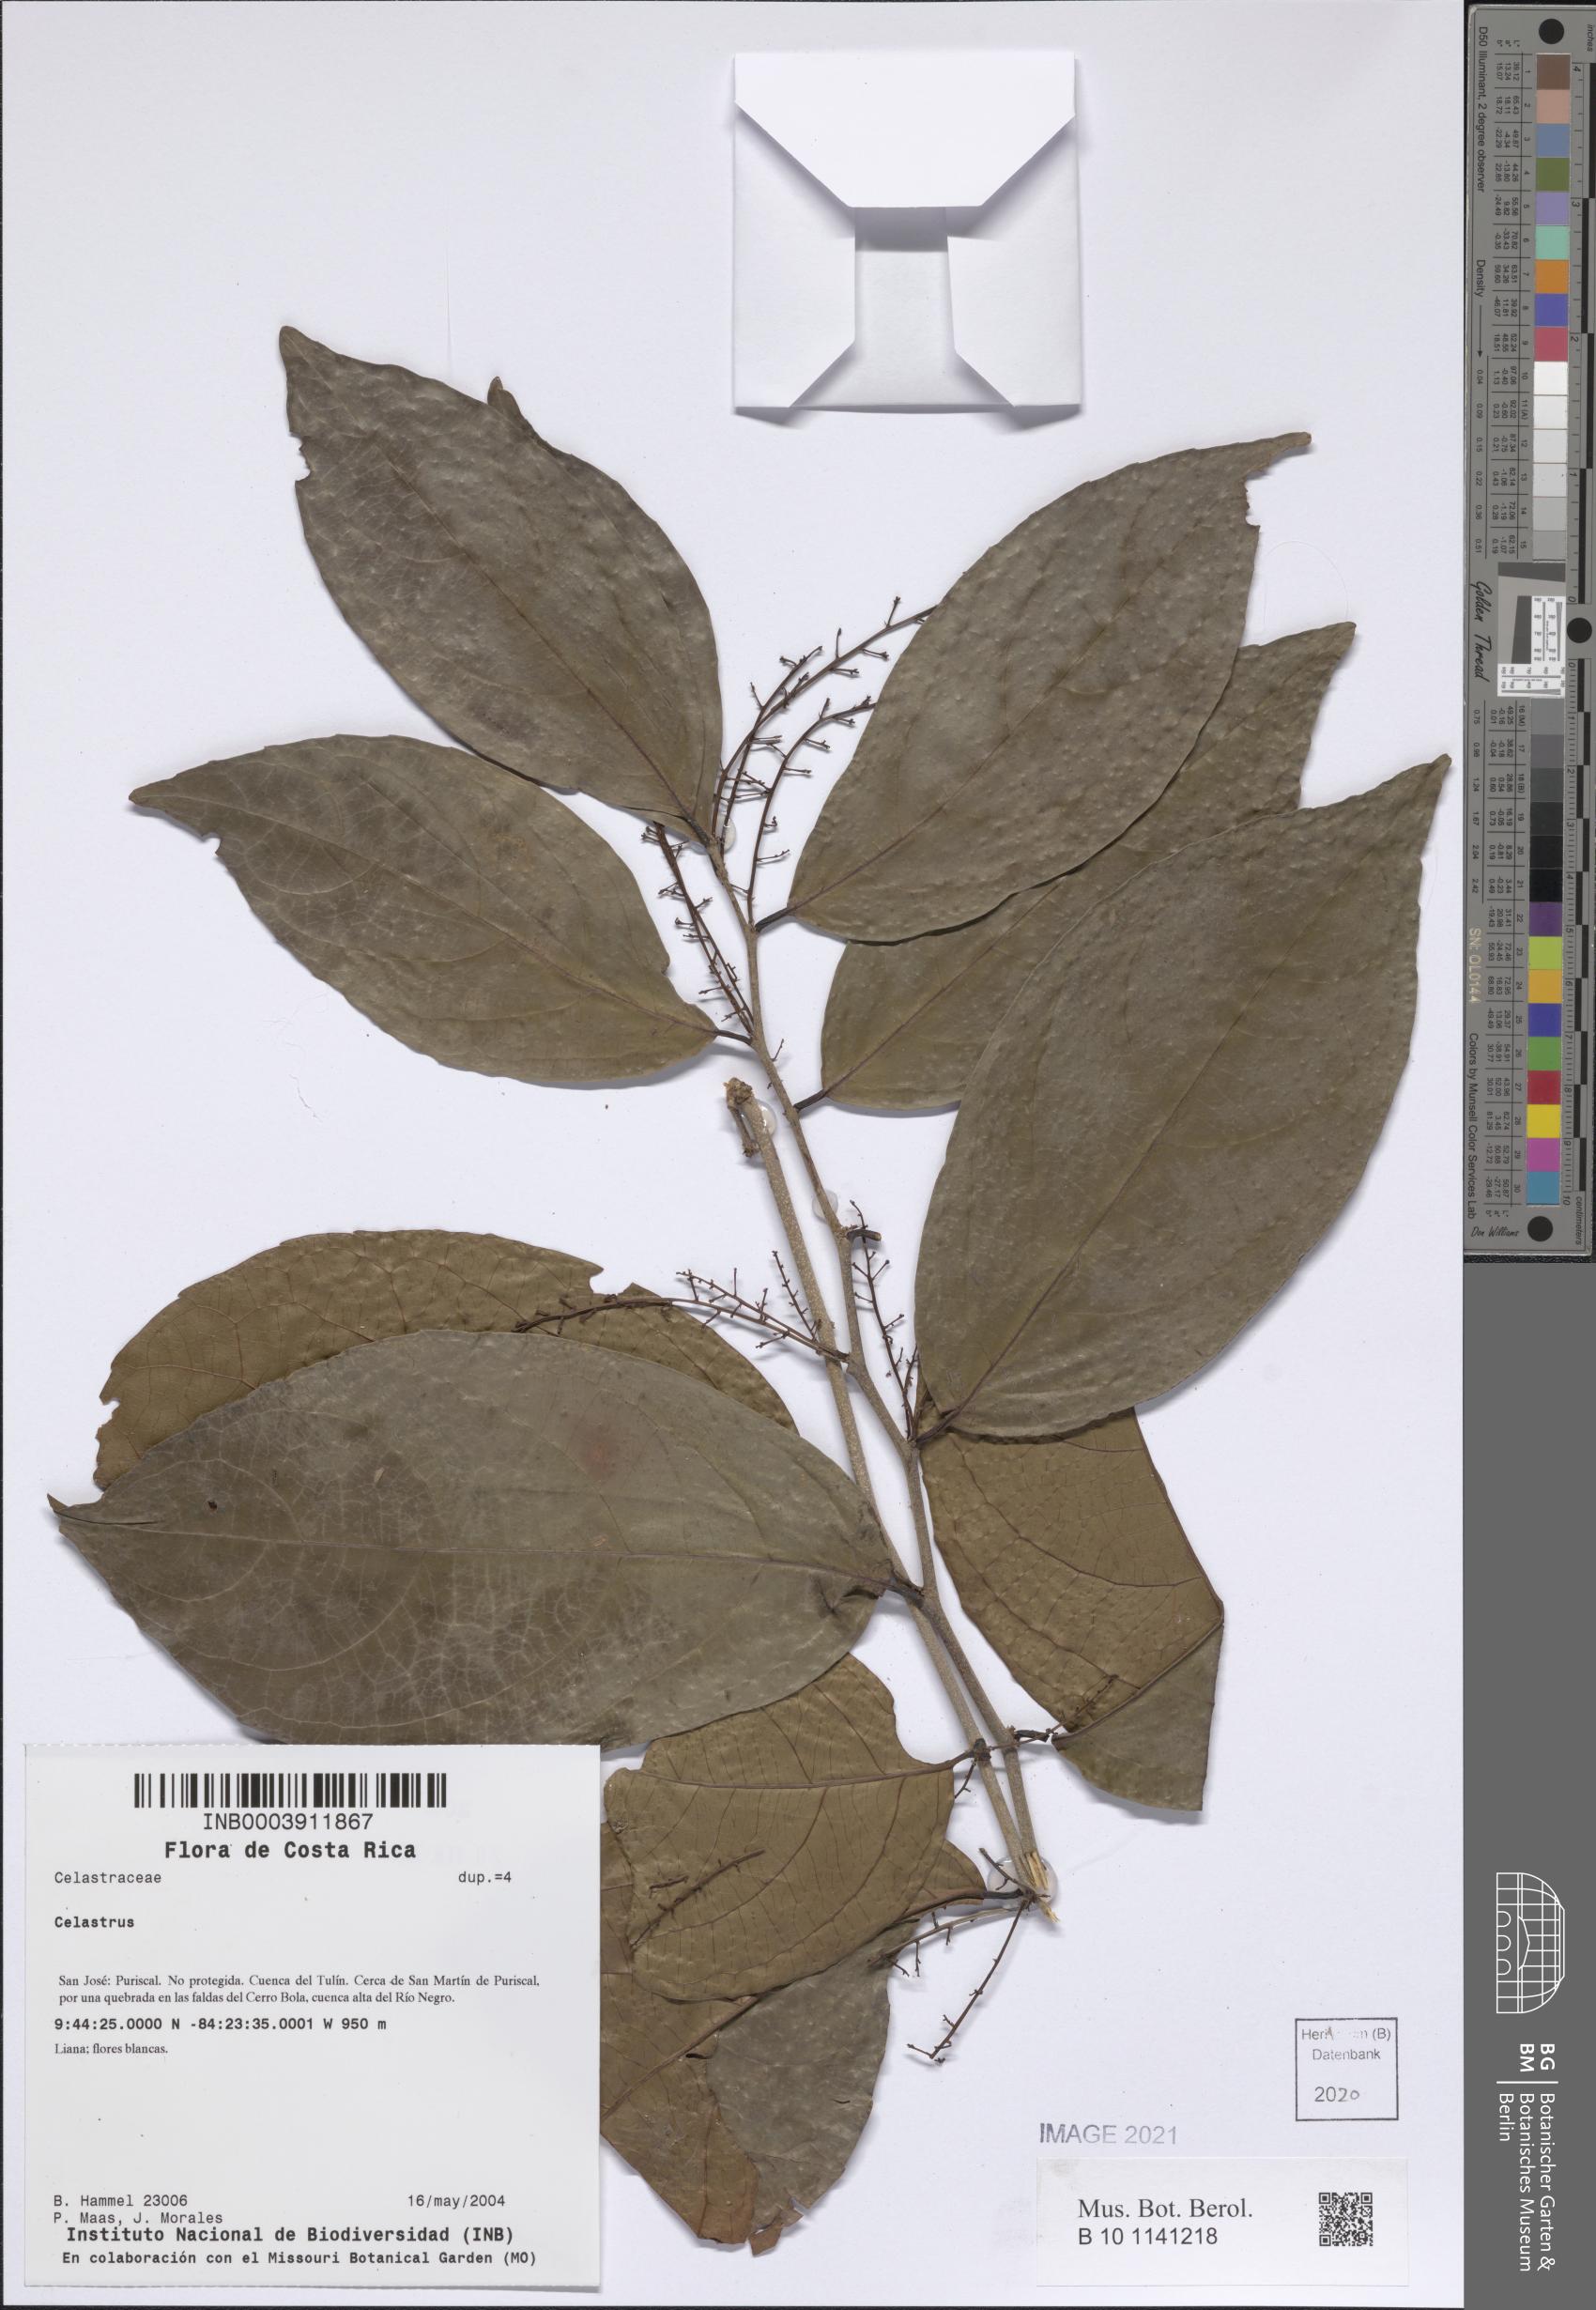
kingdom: Plantae
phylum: Tracheophyta
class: Magnoliopsida
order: Celastrales
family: Celastraceae
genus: Celastrus
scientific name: Celastrus
